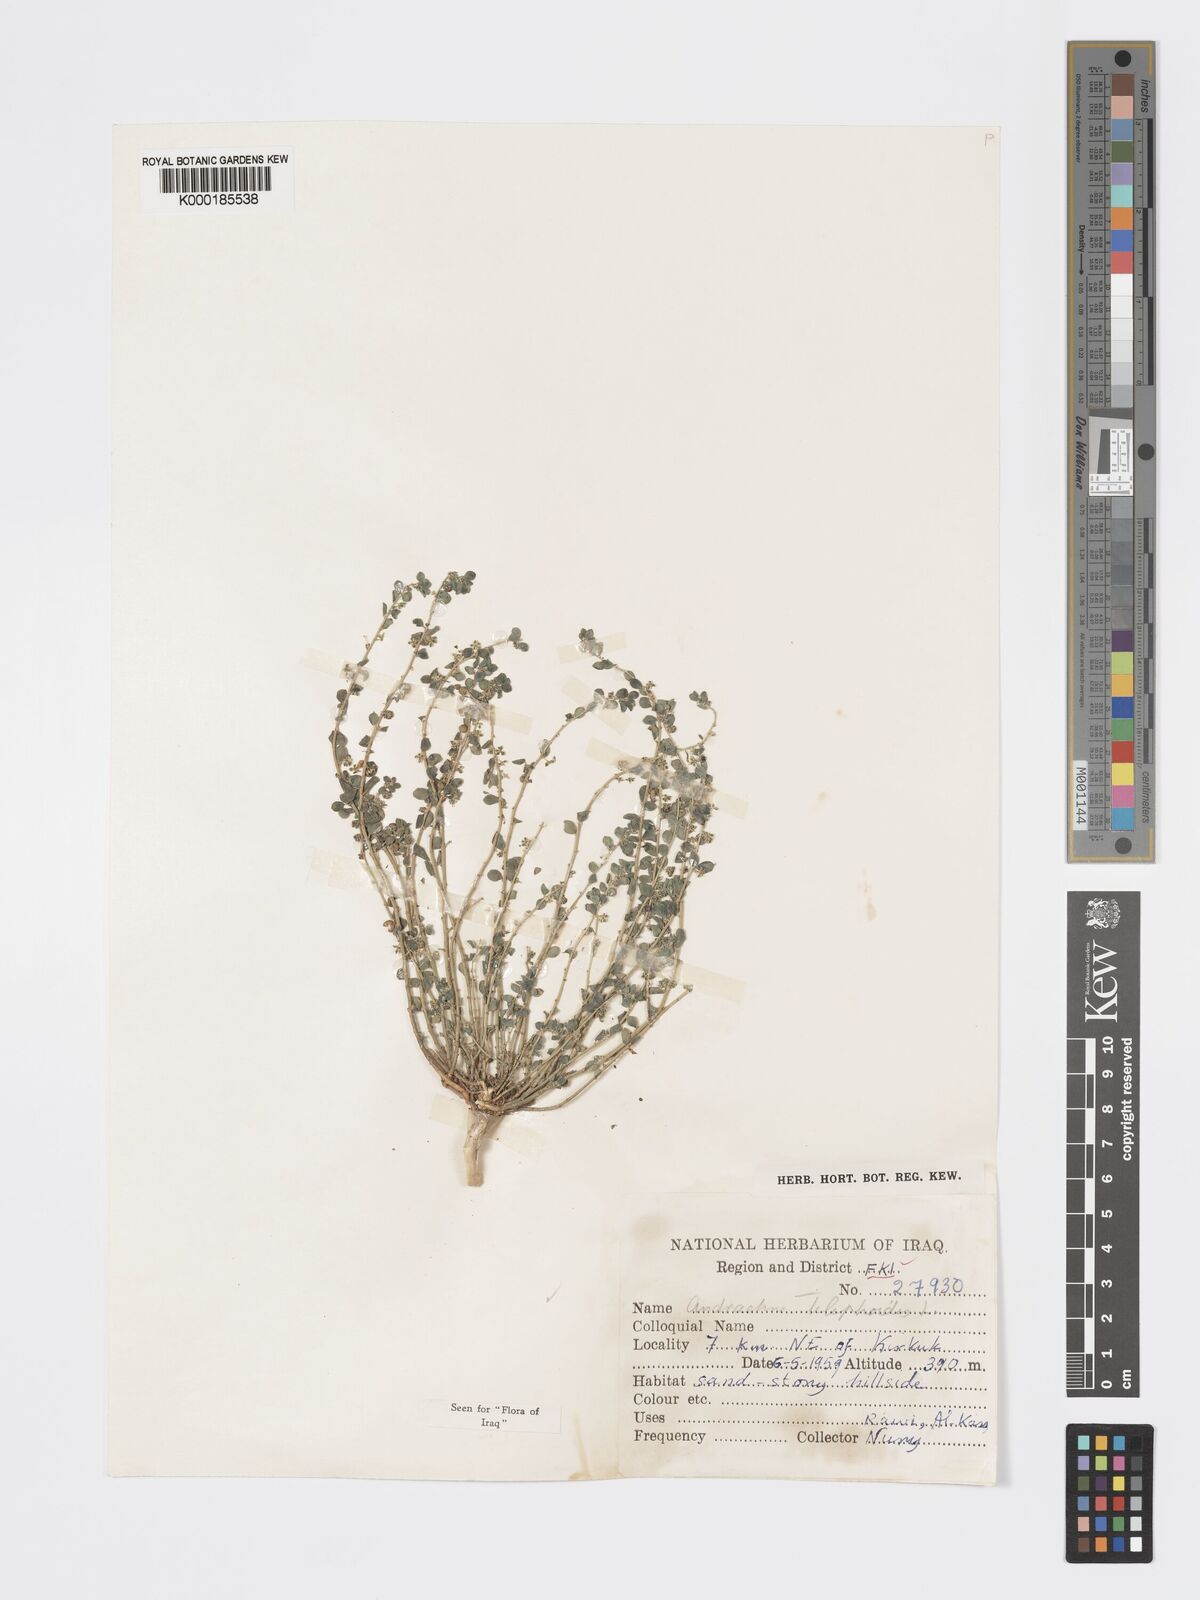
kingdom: Plantae
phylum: Tracheophyta
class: Magnoliopsida
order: Malpighiales
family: Phyllanthaceae
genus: Andrachne
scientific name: Andrachne telephioides
